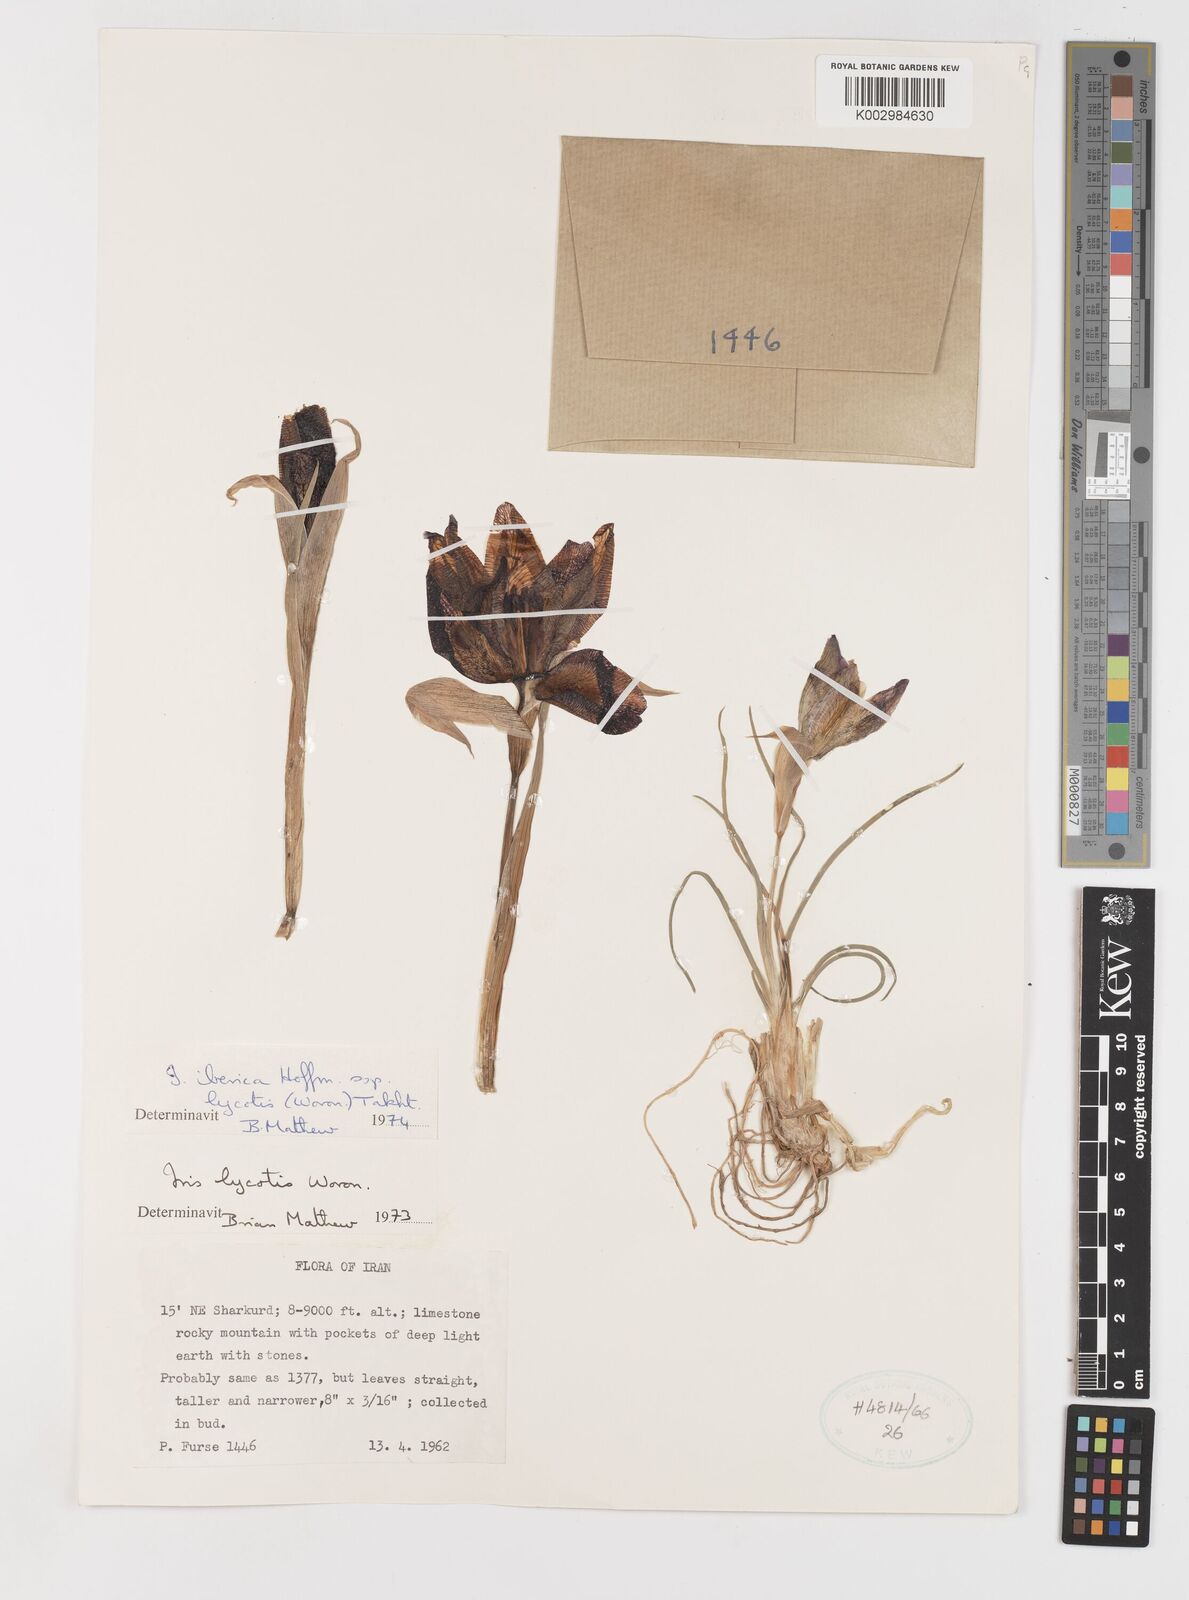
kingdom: Plantae
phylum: Tracheophyta
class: Liliopsida
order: Asparagales
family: Iridaceae
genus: Iris
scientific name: Iris lycotis
